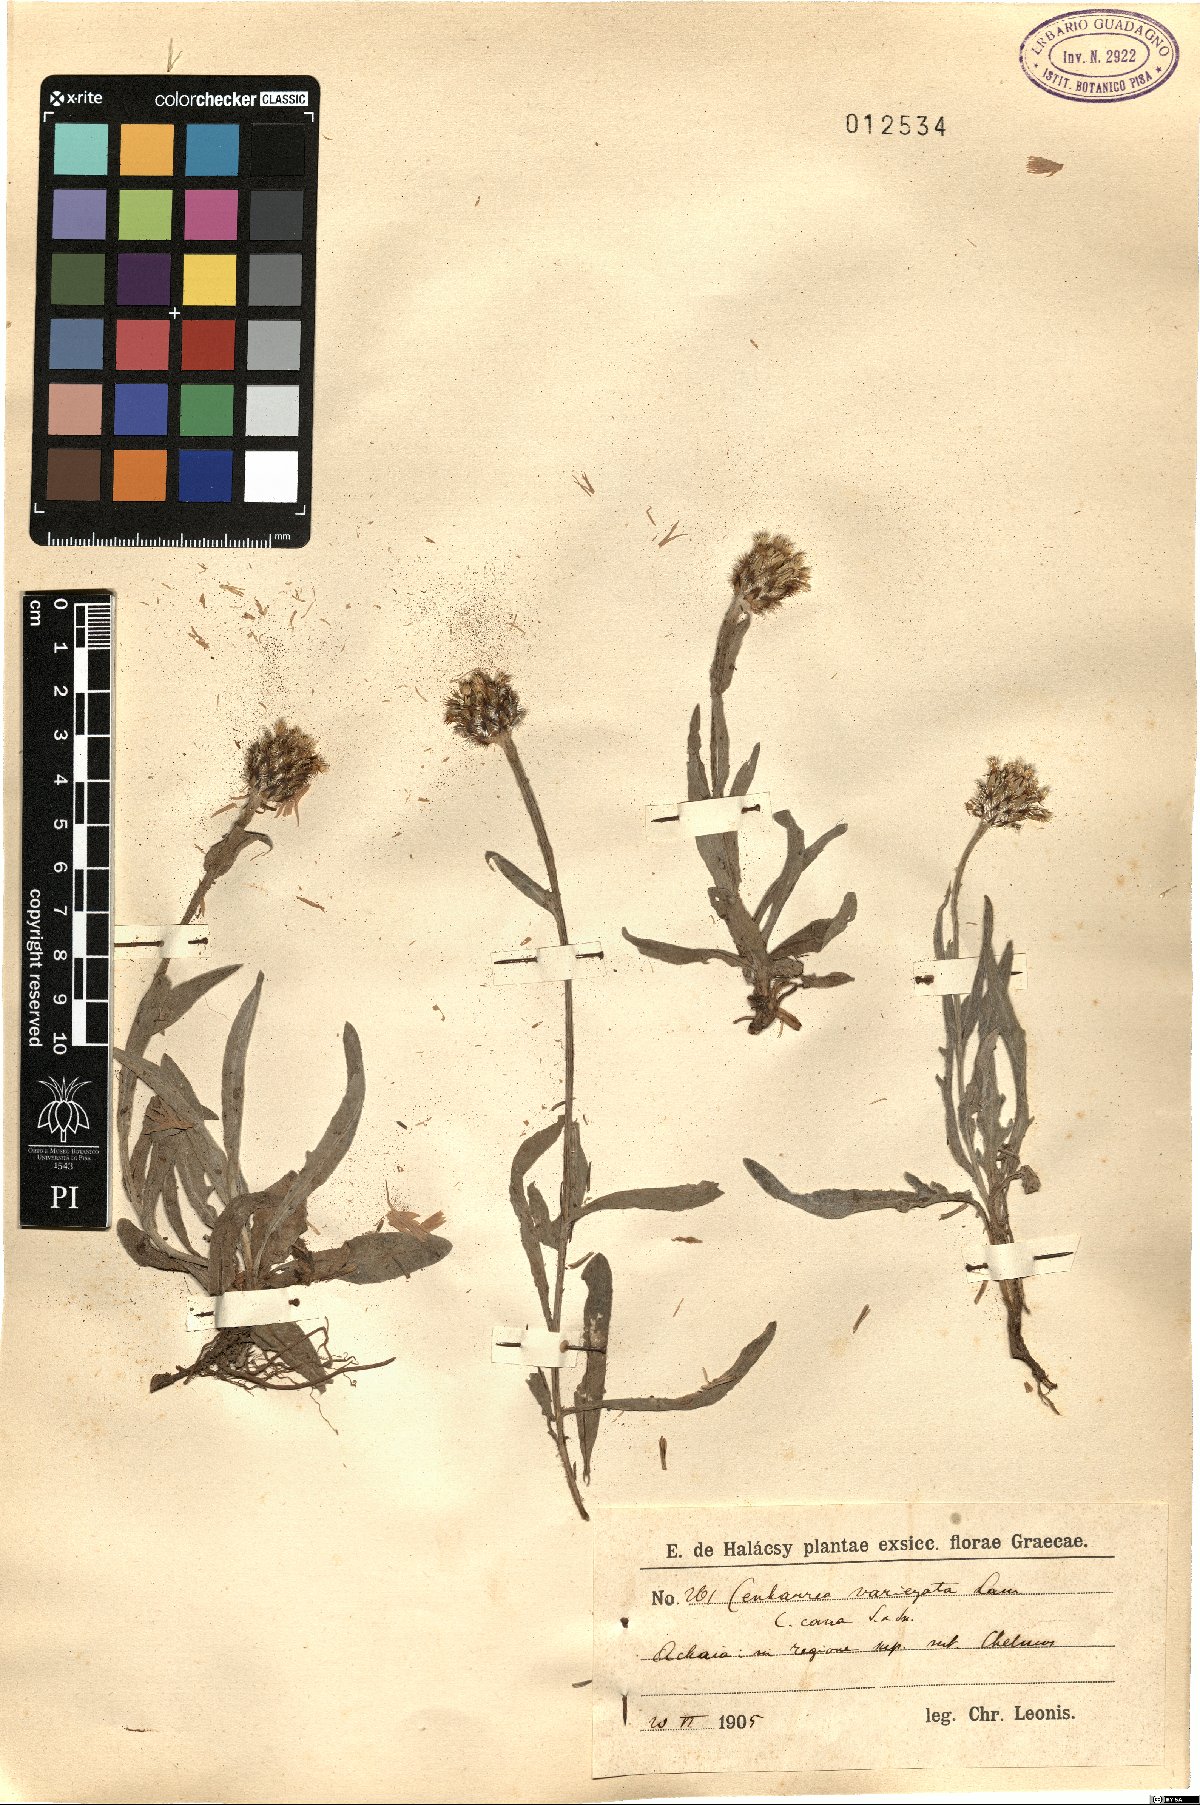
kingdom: Plantae
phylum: Tracheophyta
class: Magnoliopsida
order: Asterales
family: Asteraceae
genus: Centaurea
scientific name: Centaurea graminifolia
